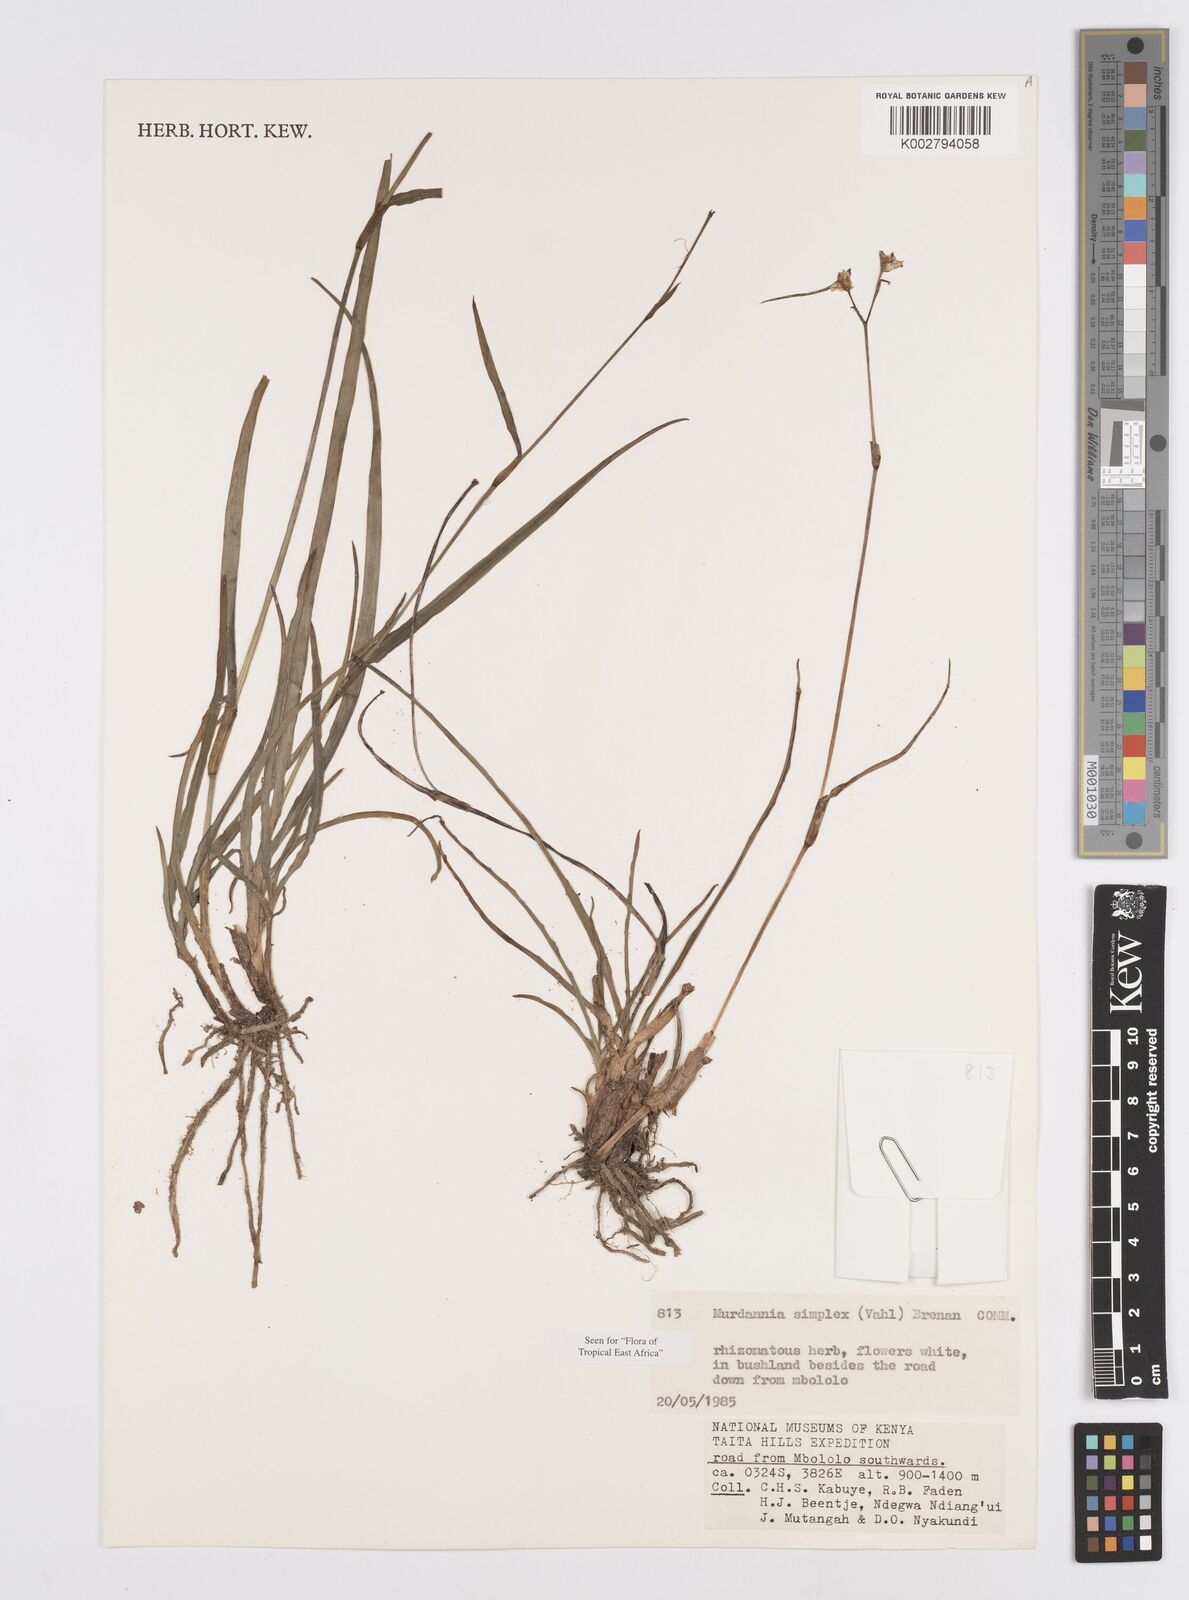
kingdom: Plantae
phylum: Tracheophyta
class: Liliopsida
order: Commelinales
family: Commelinaceae
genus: Murdannia
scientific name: Murdannia simplex
